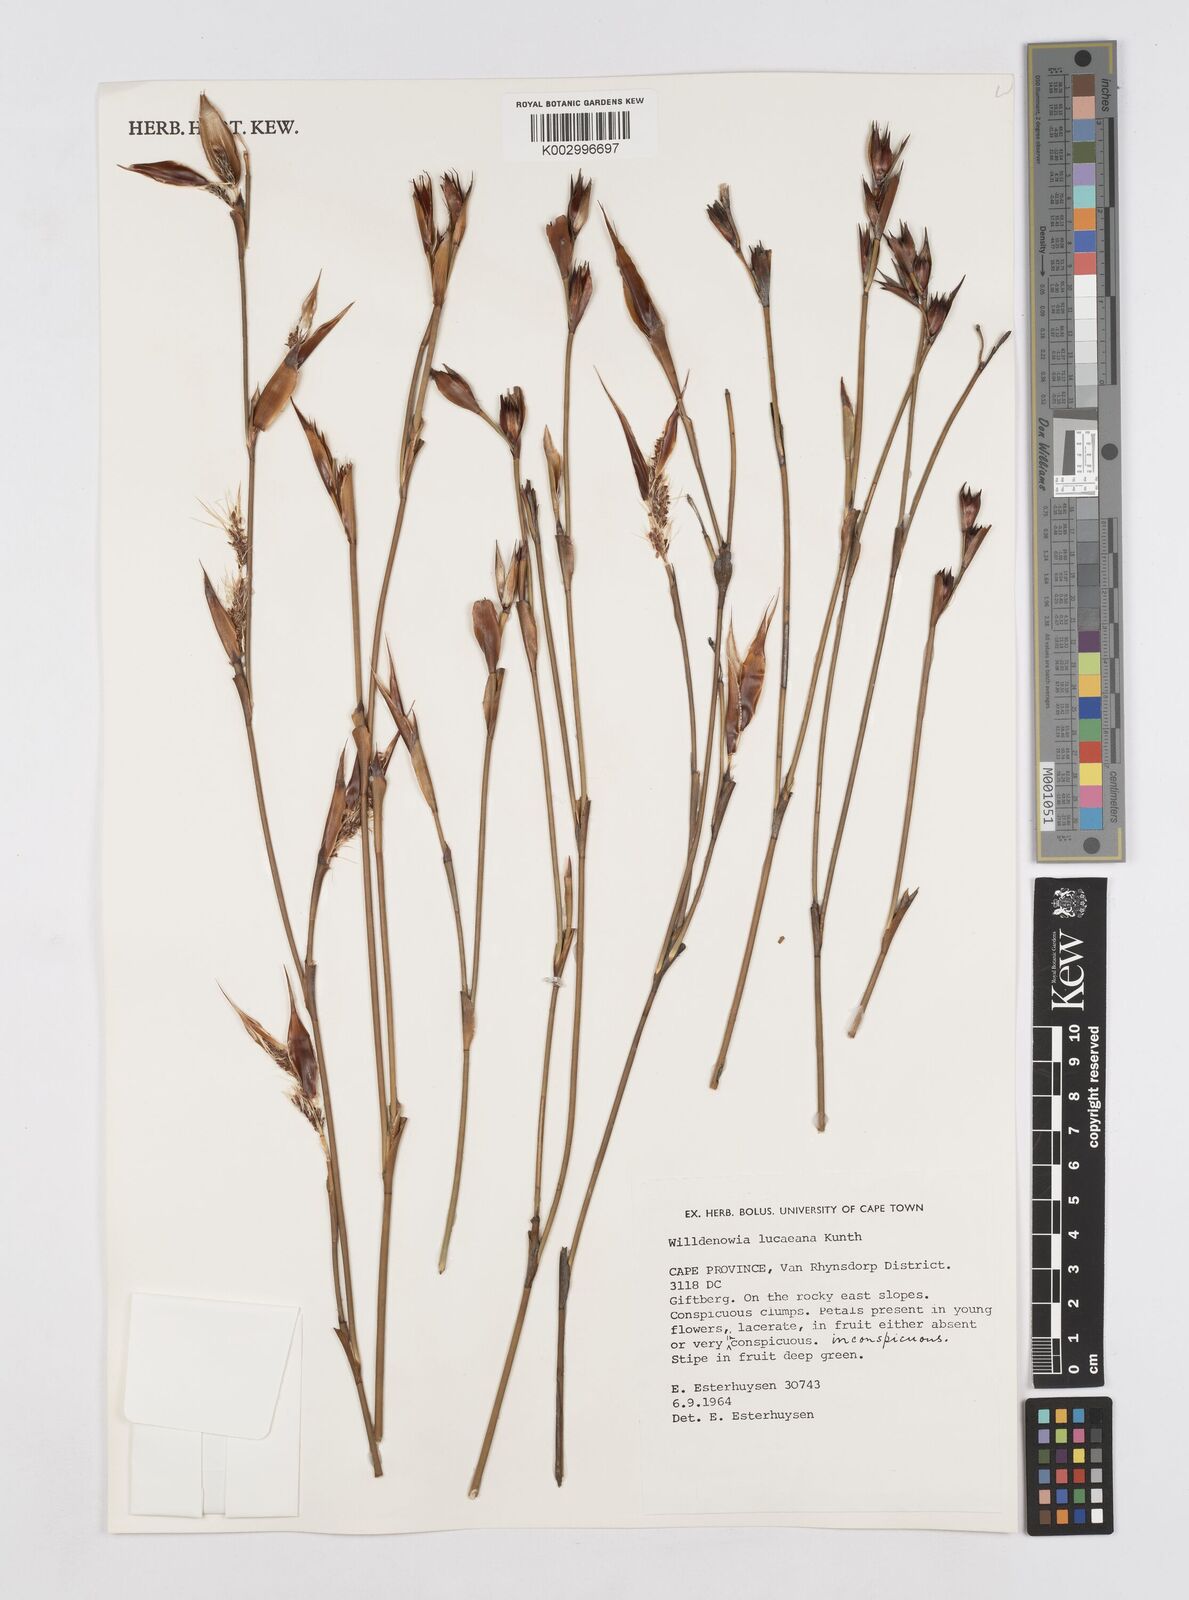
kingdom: Plantae
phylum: Tracheophyta
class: Liliopsida
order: Poales
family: Restionaceae
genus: Willdenowia
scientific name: Willdenowia glomerata
